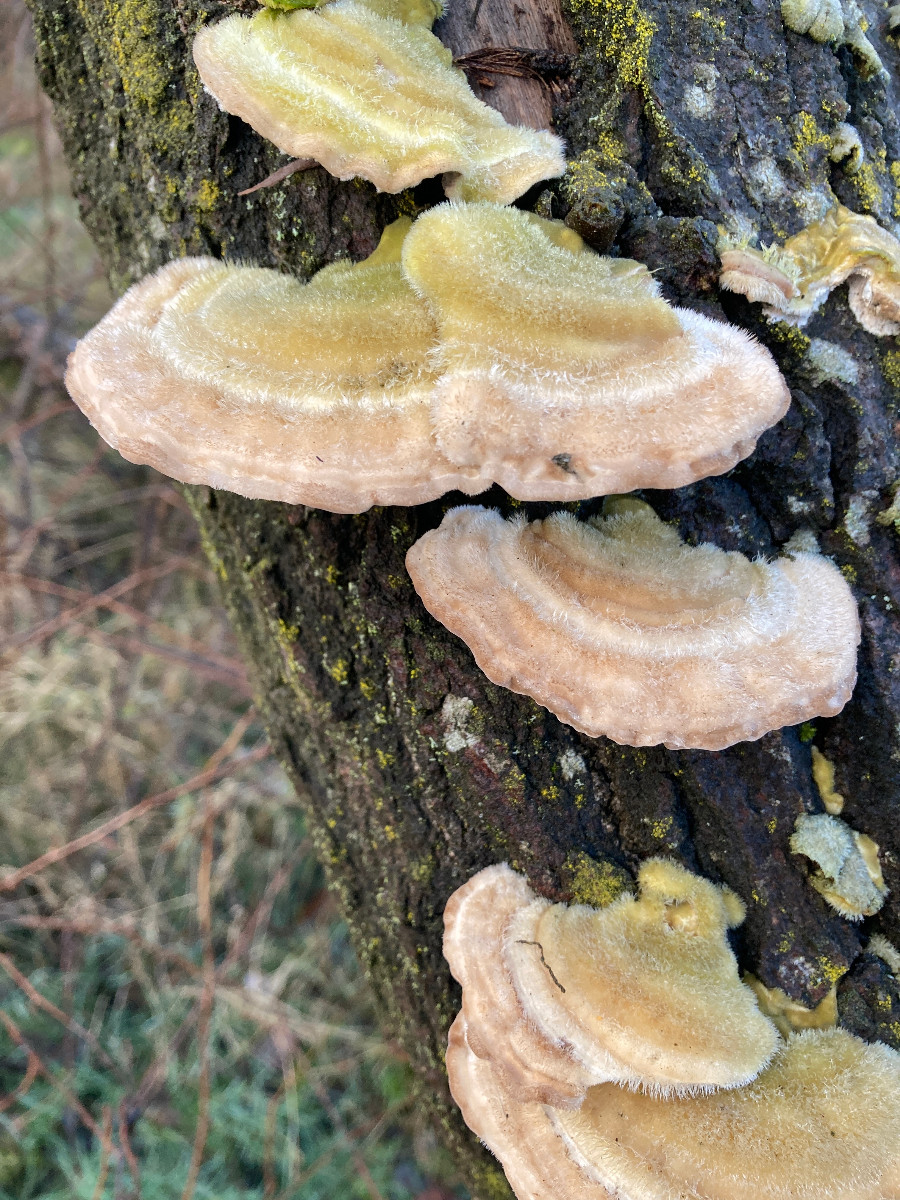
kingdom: Fungi
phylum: Basidiomycota
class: Agaricomycetes
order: Polyporales
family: Polyporaceae
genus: Trametes
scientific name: Trametes hirsuta
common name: håret læderporesvamp
